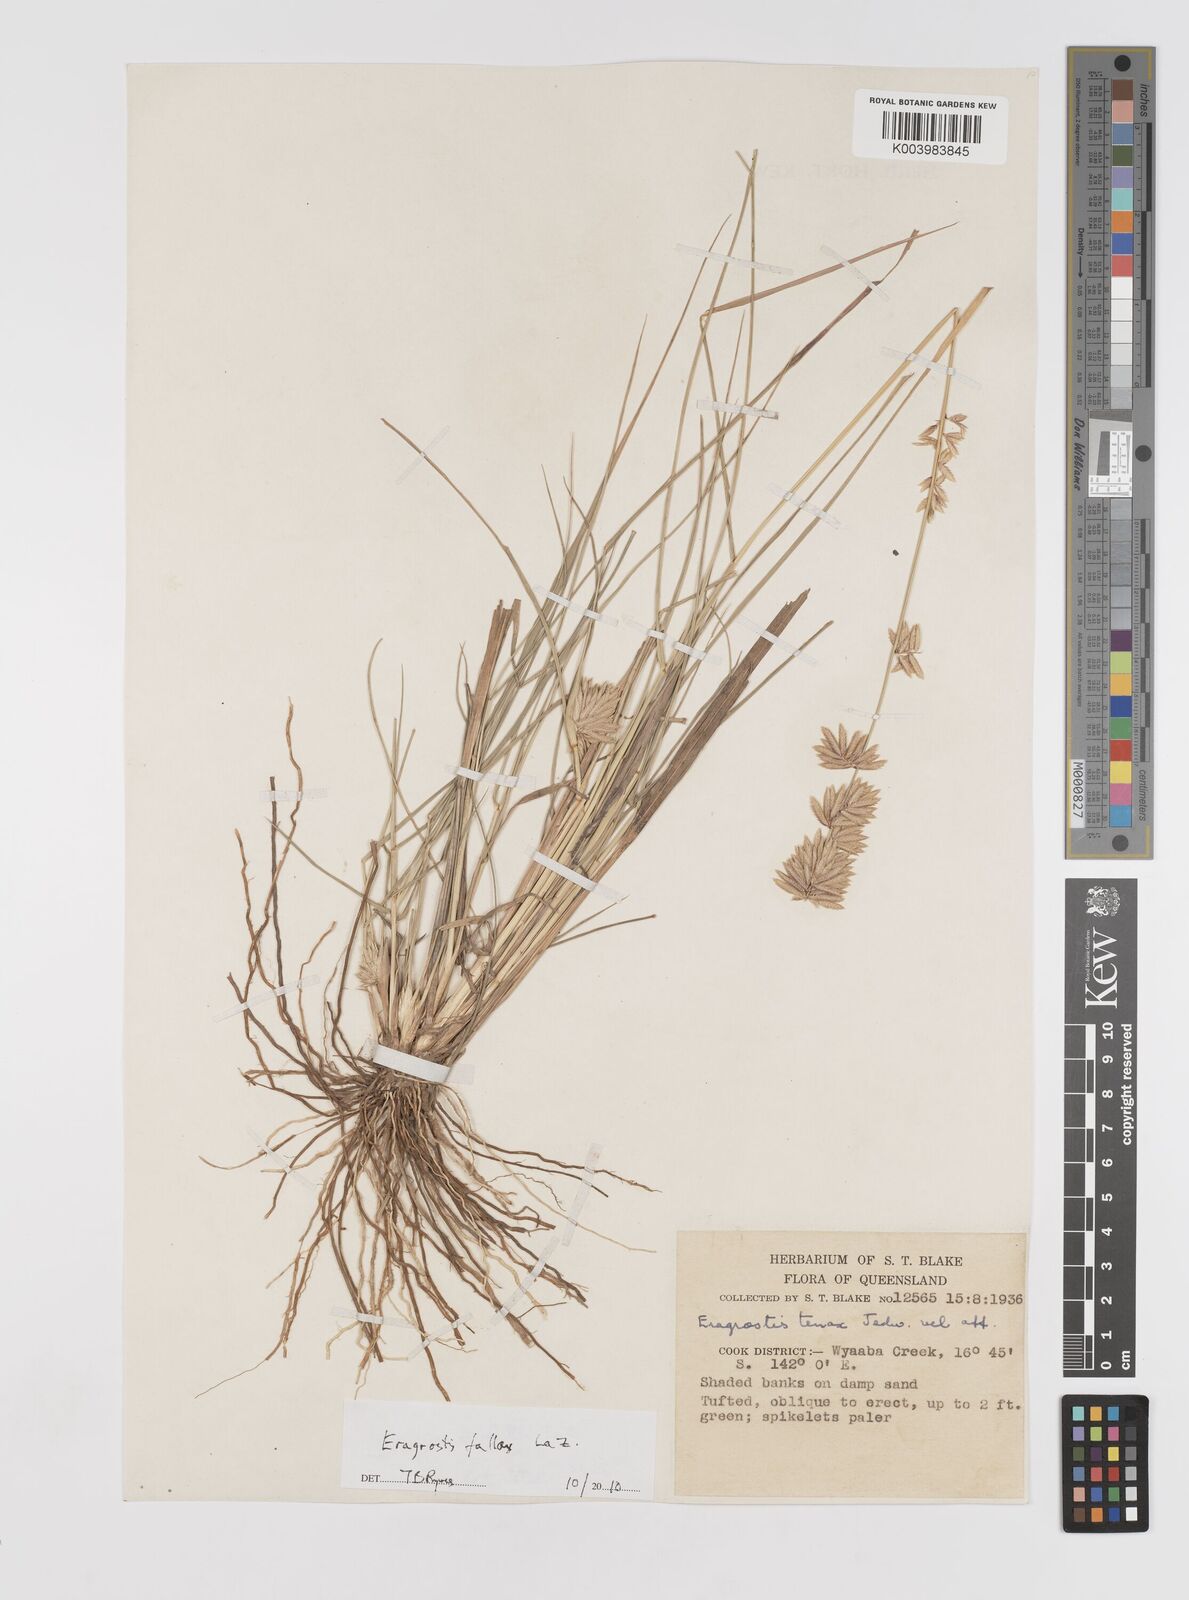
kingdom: Plantae
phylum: Tracheophyta
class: Liliopsida
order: Poales
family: Poaceae
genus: Eragrostis
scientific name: Eragrostis fallax
